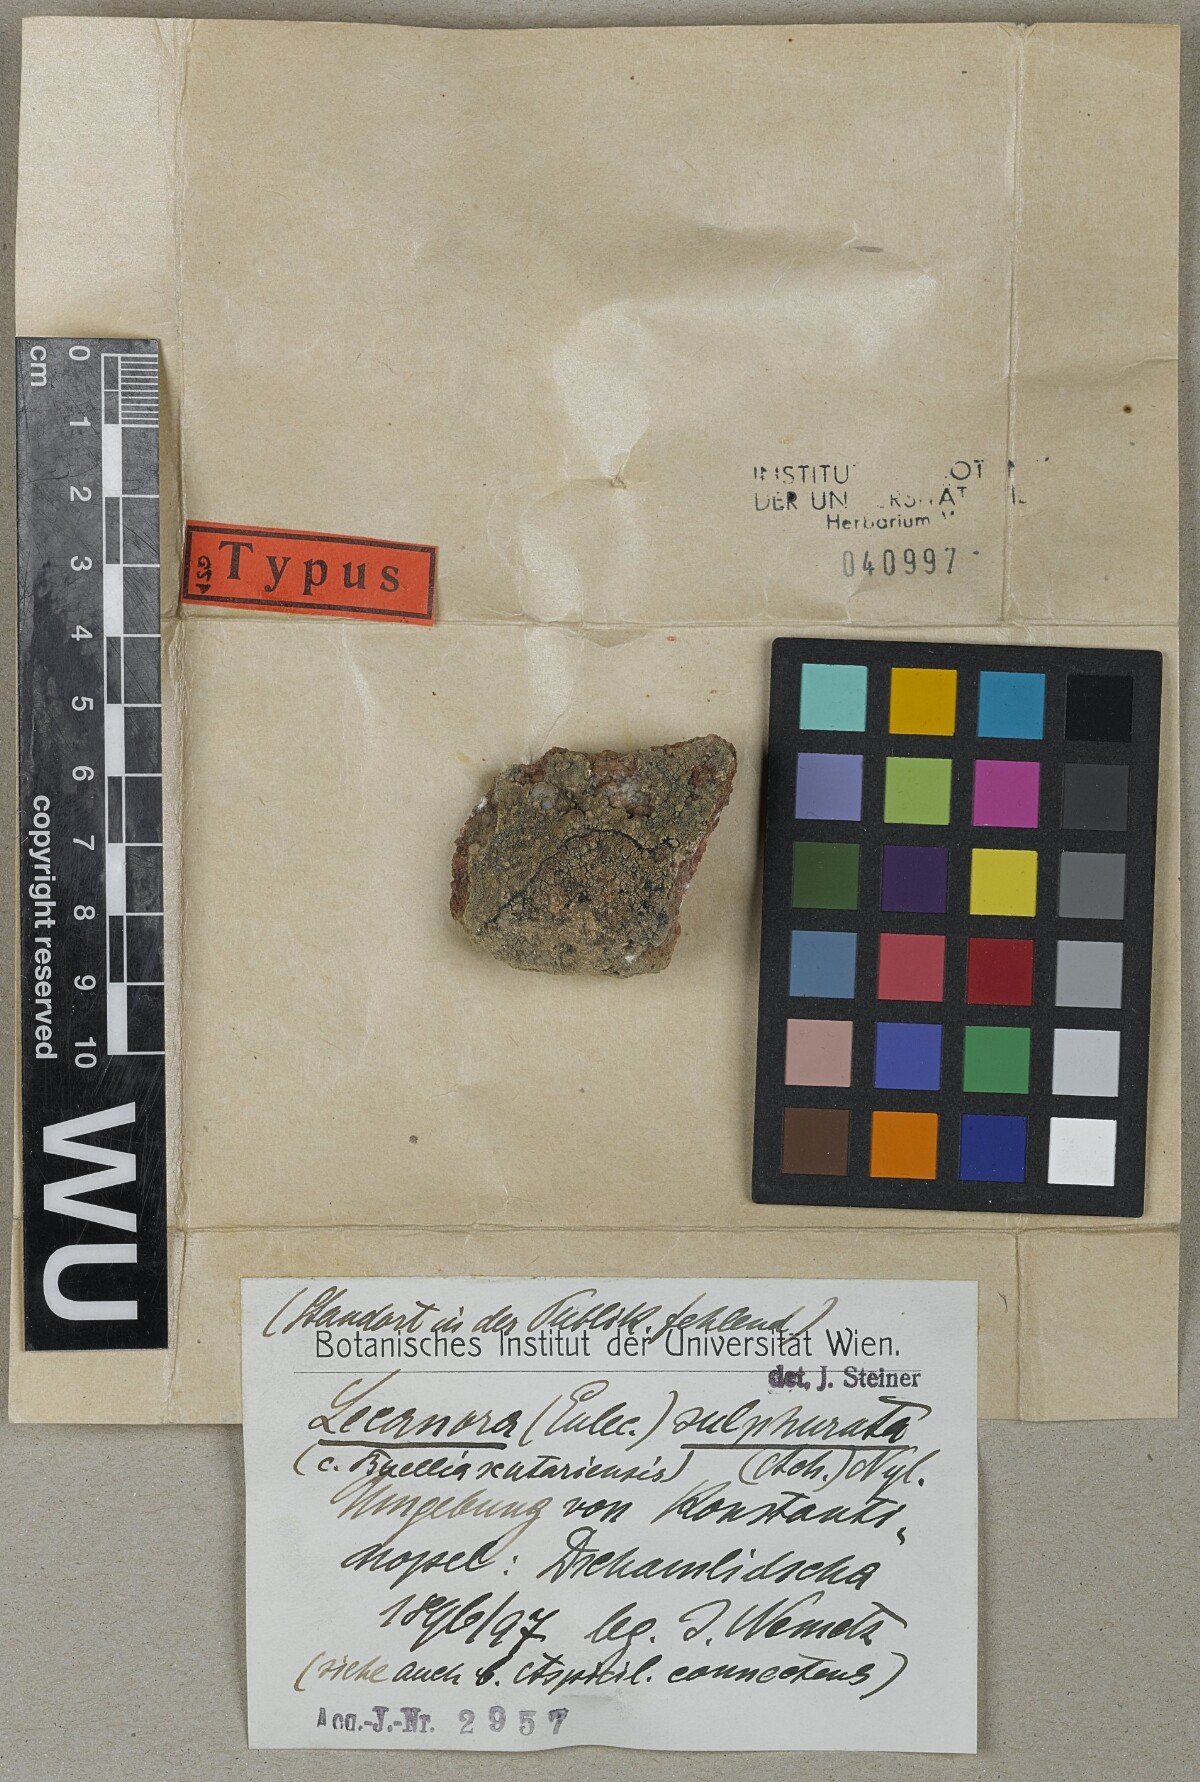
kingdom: Fungi
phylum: Ascomycota
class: Lecanoromycetes
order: Lecanorales
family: Lecanoraceae
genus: Lecanora
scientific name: Lecanora sulphurata
